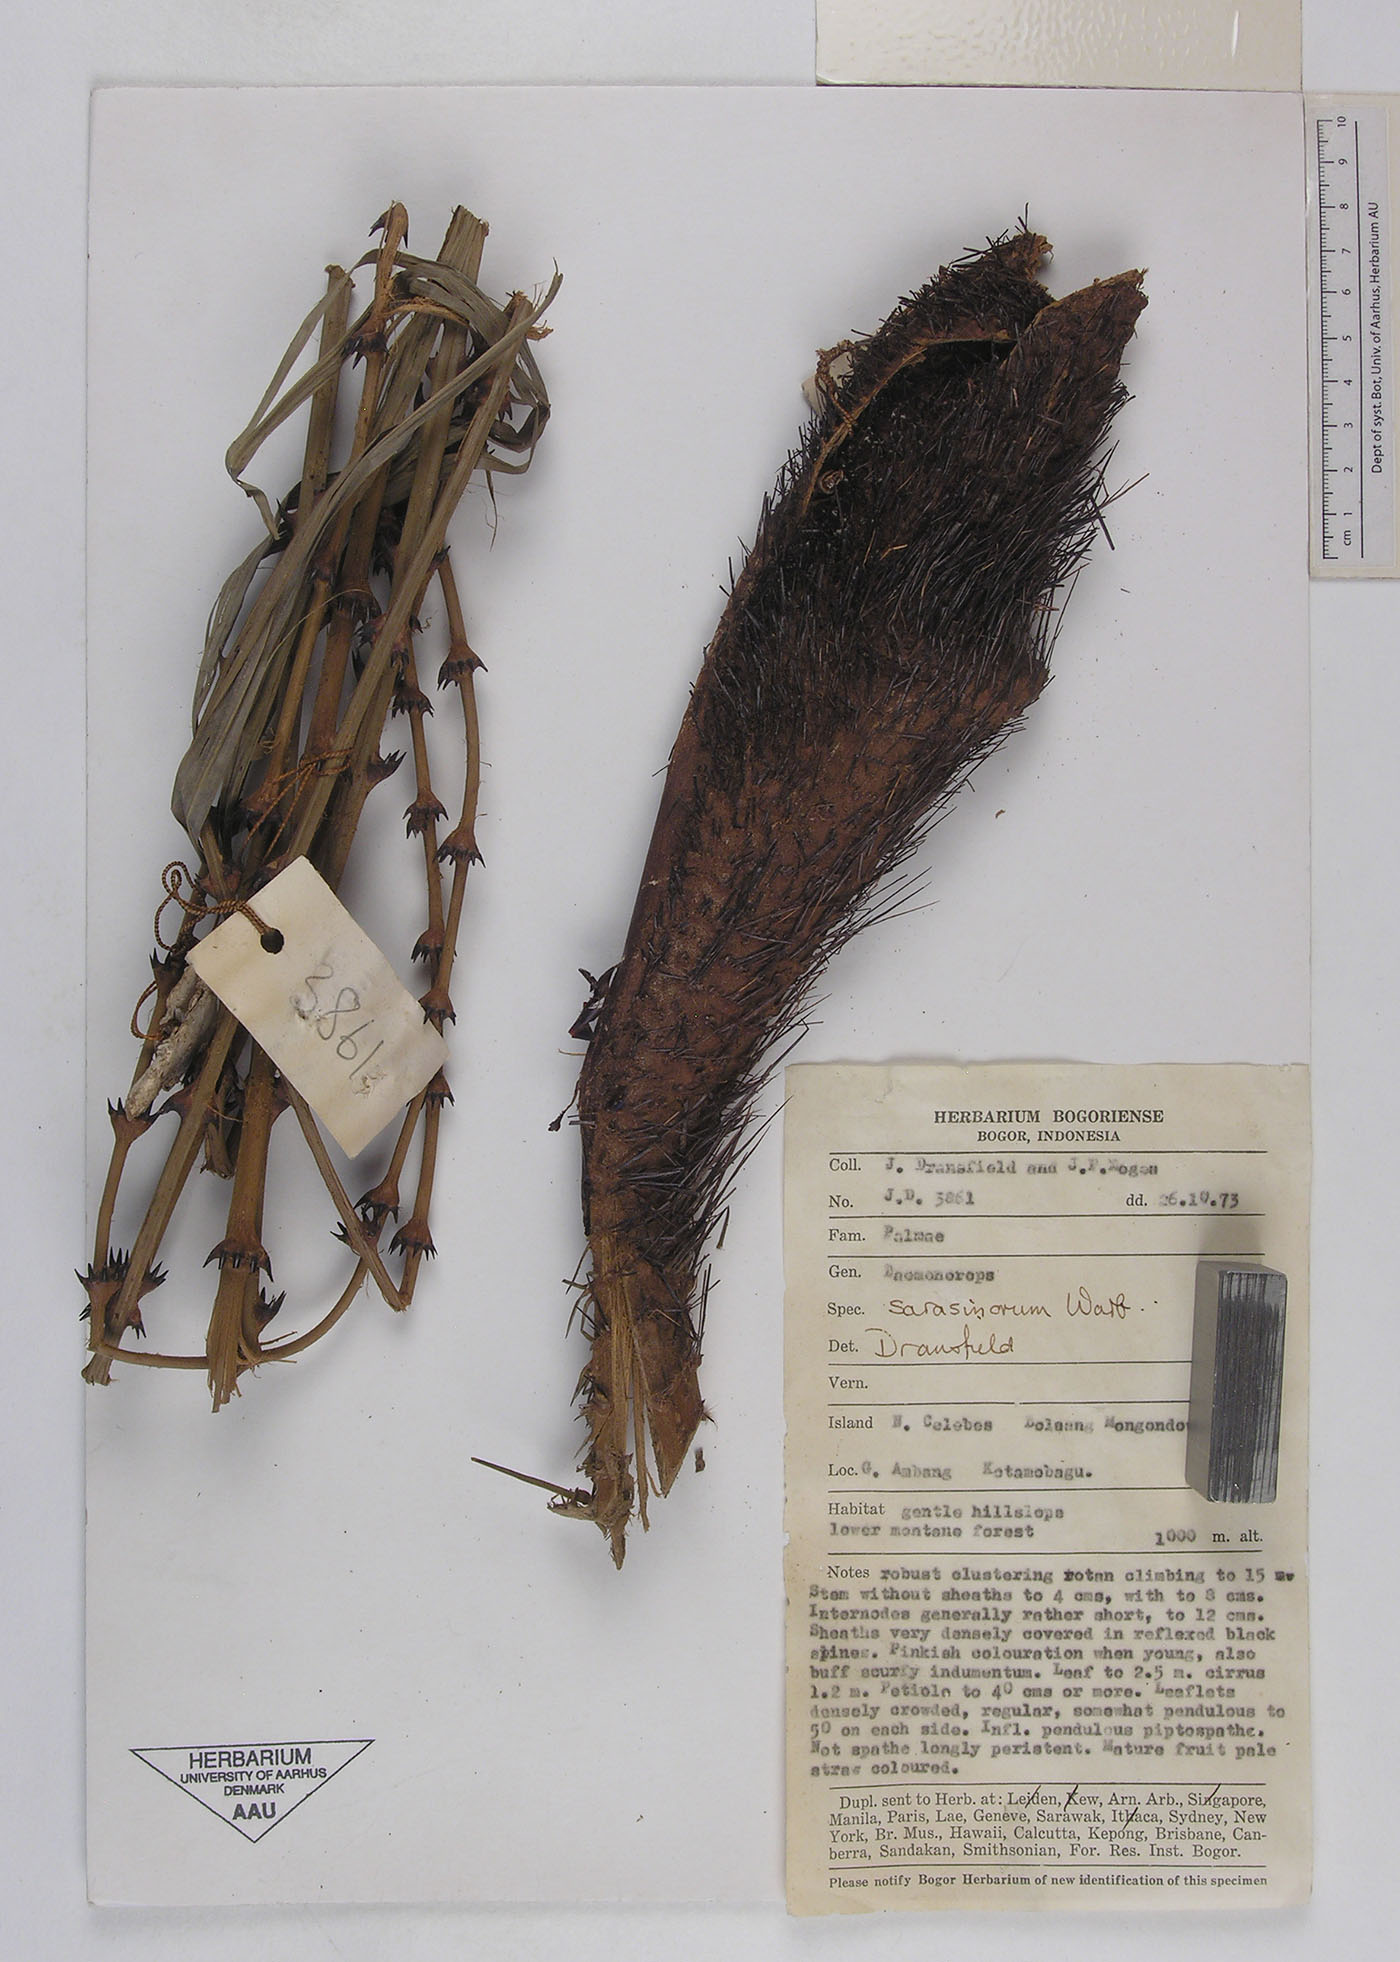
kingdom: Plantae
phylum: Tracheophyta
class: Liliopsida
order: Arecales
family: Arecaceae
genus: Calamus
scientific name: Calamus macropterus
